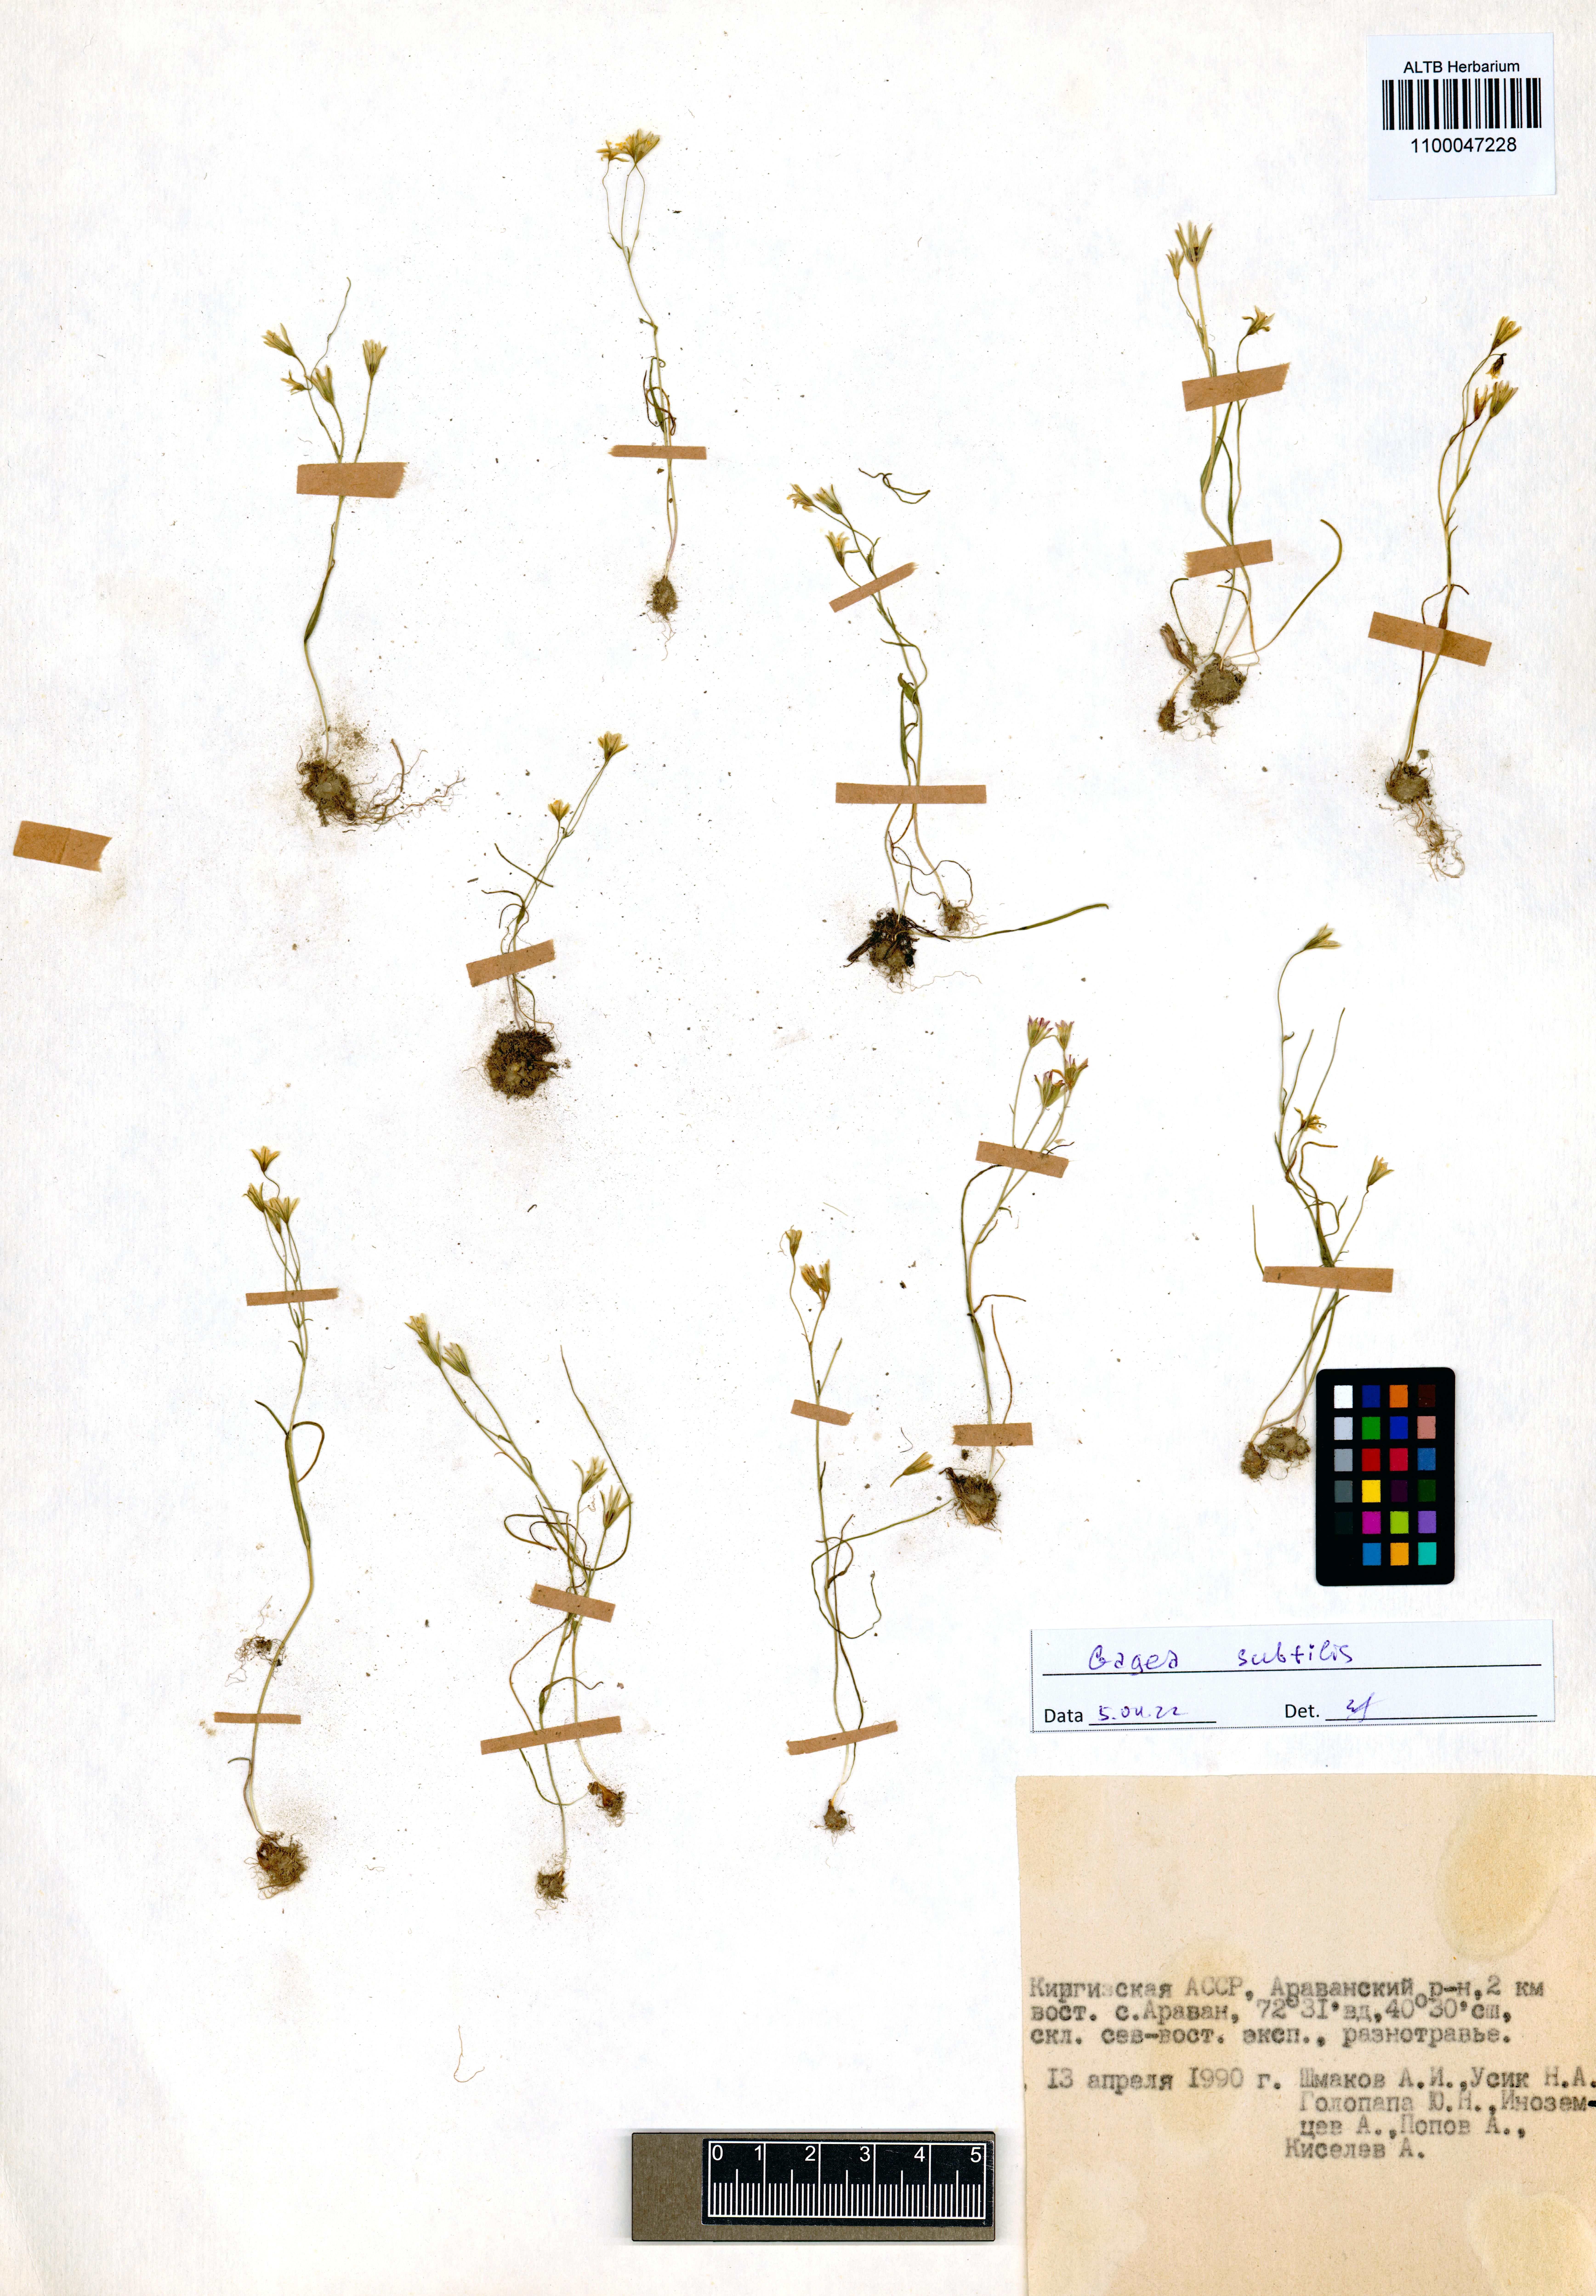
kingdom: Plantae
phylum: Tracheophyta
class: Liliopsida
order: Liliales
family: Liliaceae
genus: Gagea
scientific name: Gagea subtilis
